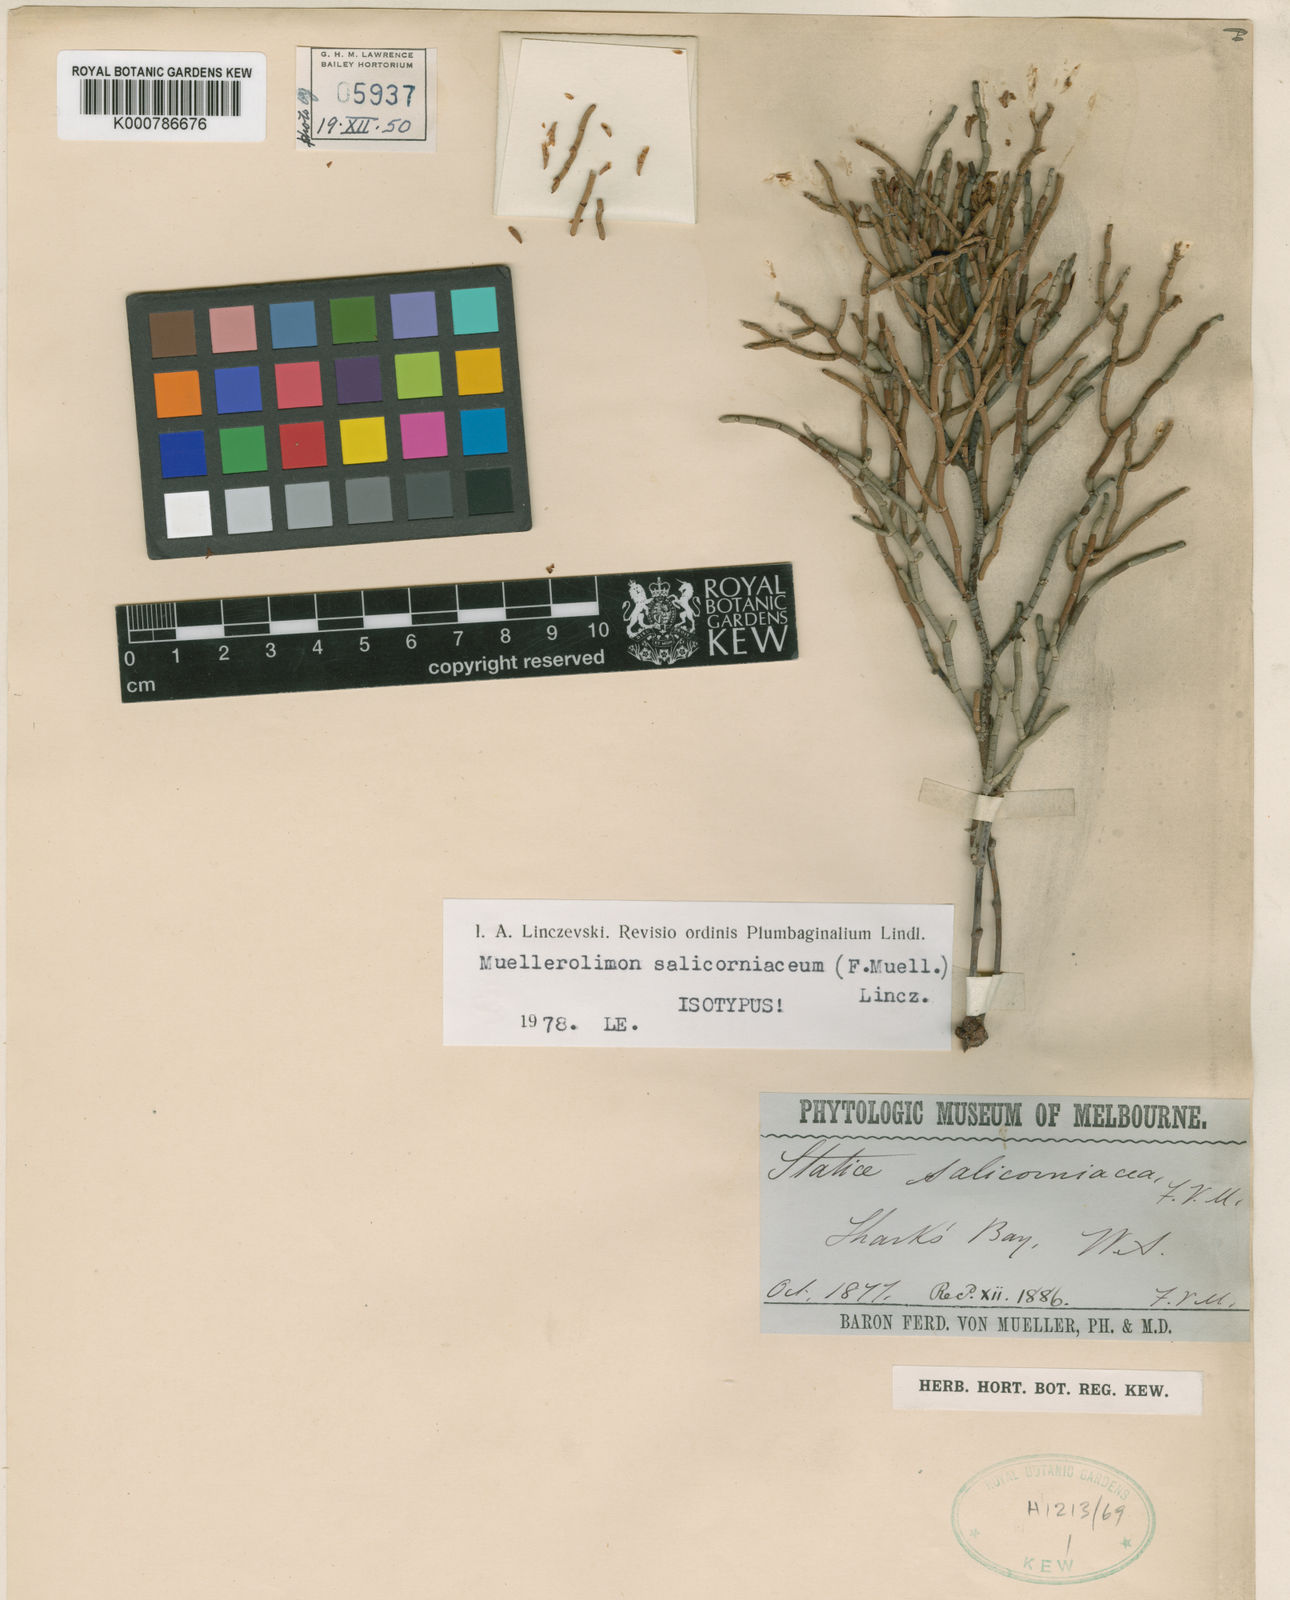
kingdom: Plantae
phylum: Tracheophyta
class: Magnoliopsida
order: Caryophyllales
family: Plumbaginaceae
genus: Muellerolimon
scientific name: Muellerolimon
